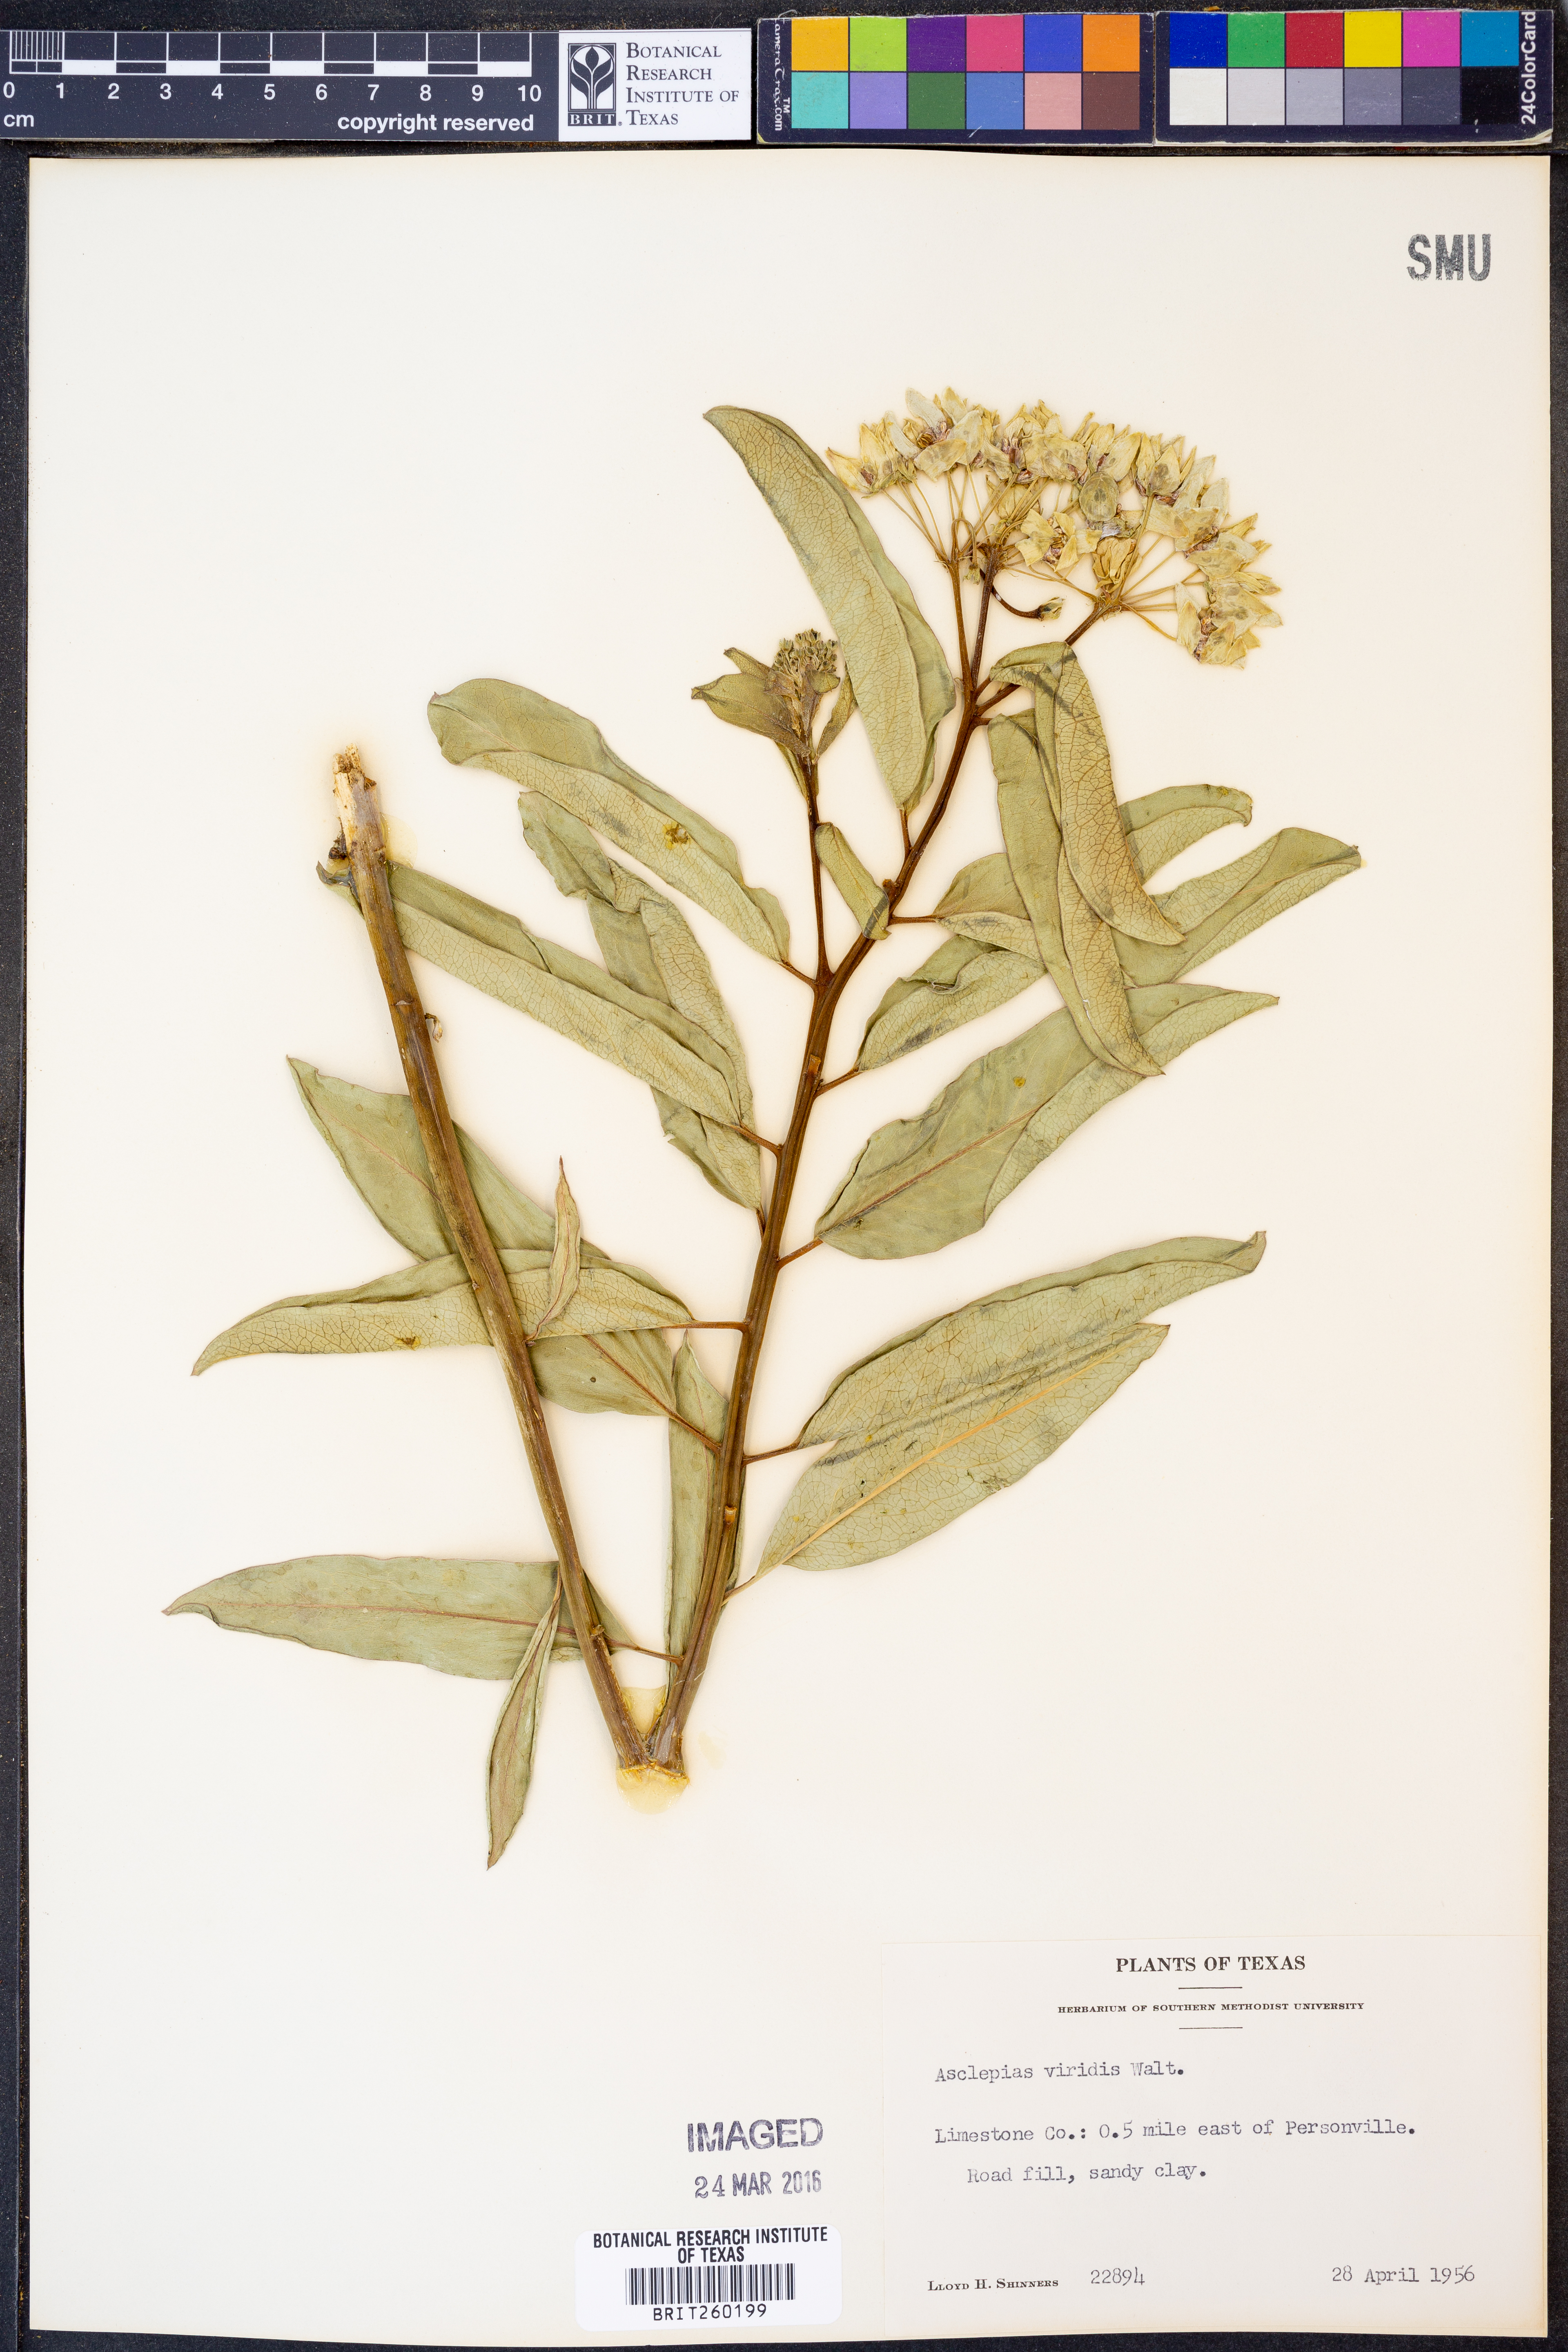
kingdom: Plantae
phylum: Tracheophyta
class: Magnoliopsida
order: Gentianales
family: Apocynaceae
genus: Asclepias
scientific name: Asclepias viridis
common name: Antelope-horns
